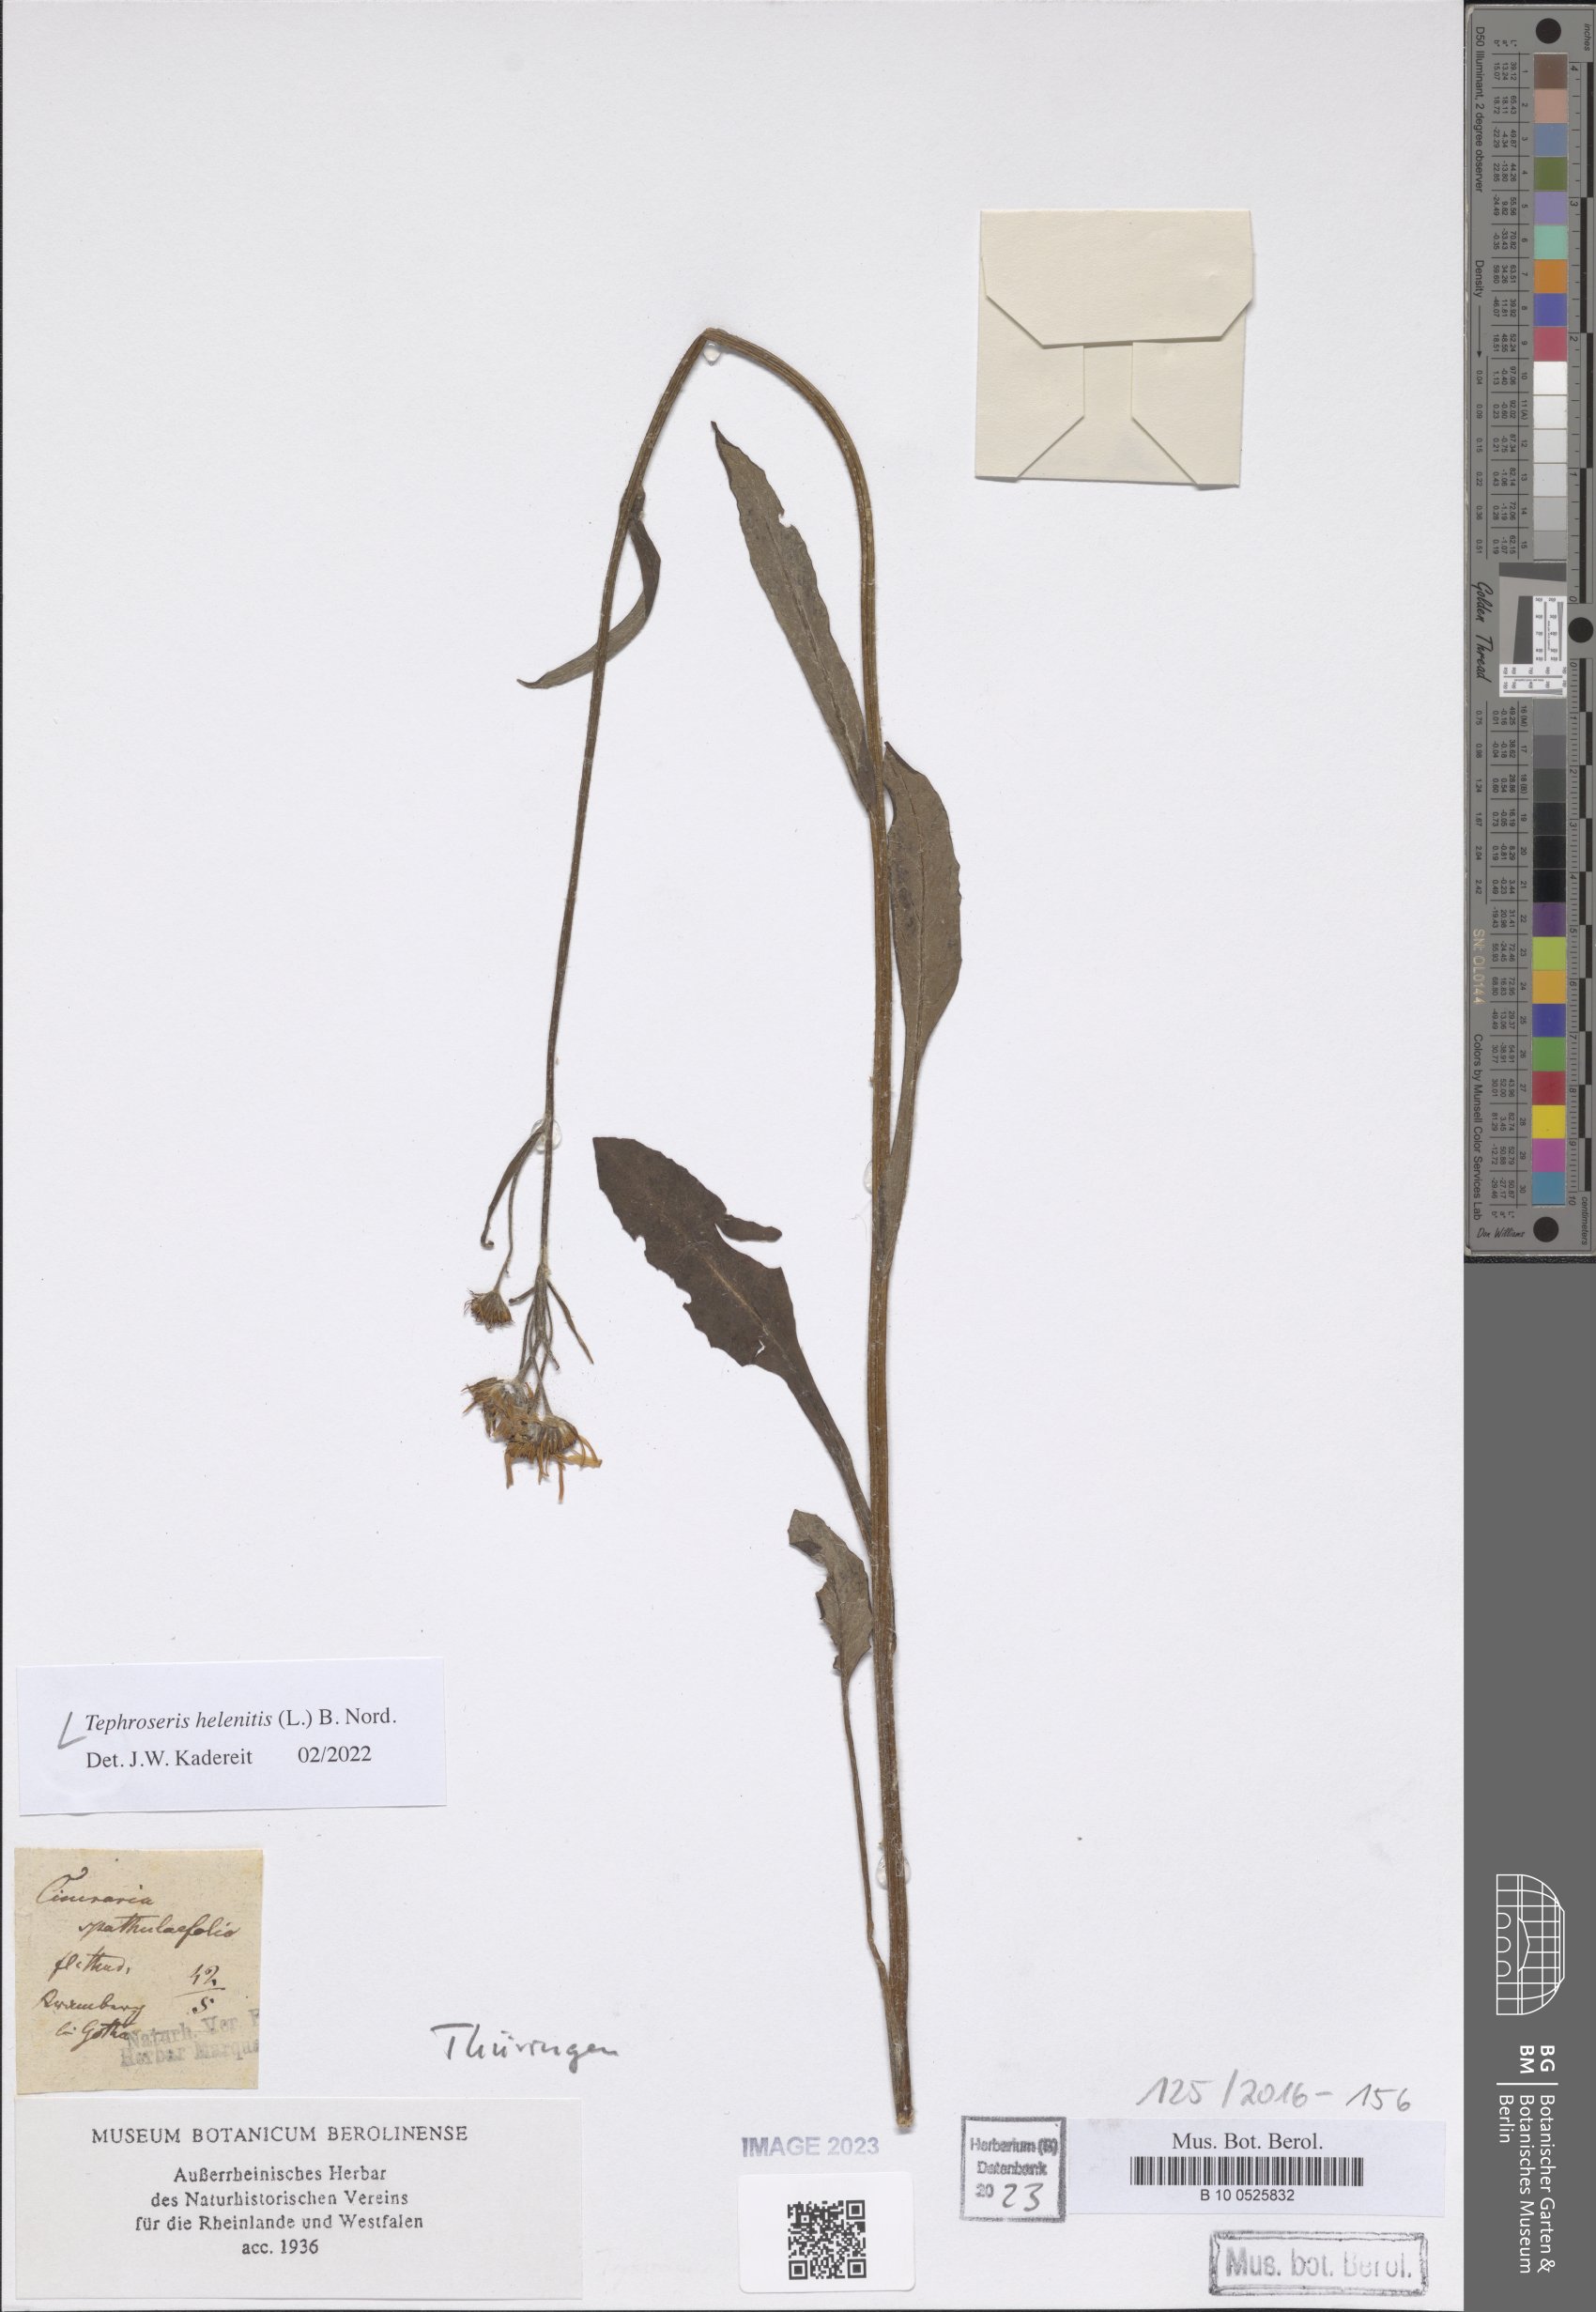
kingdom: Plantae
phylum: Tracheophyta
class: Magnoliopsida
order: Asterales
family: Asteraceae
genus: Tephroseris
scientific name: Tephroseris helenitis
